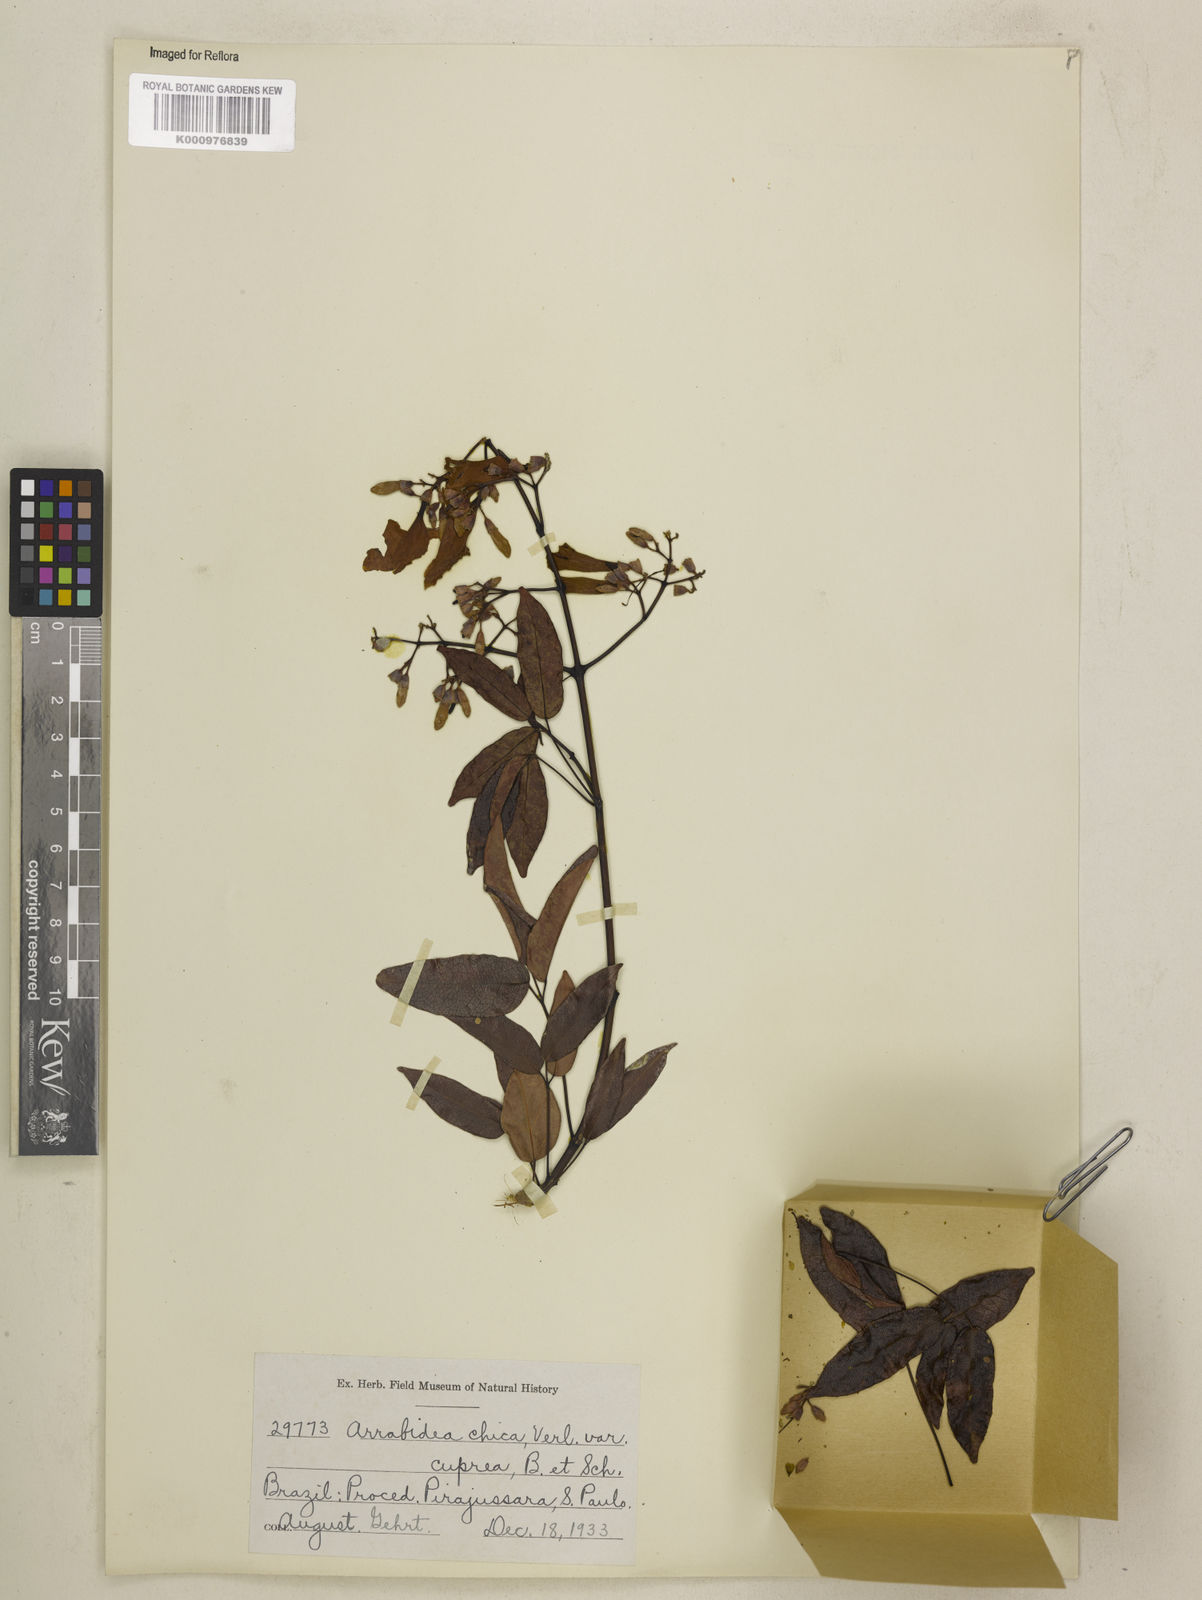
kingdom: Plantae
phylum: Tracheophyta
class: Magnoliopsida
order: Lamiales
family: Bignoniaceae
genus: Fridericia
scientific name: Fridericia chica
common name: Cricketvine
